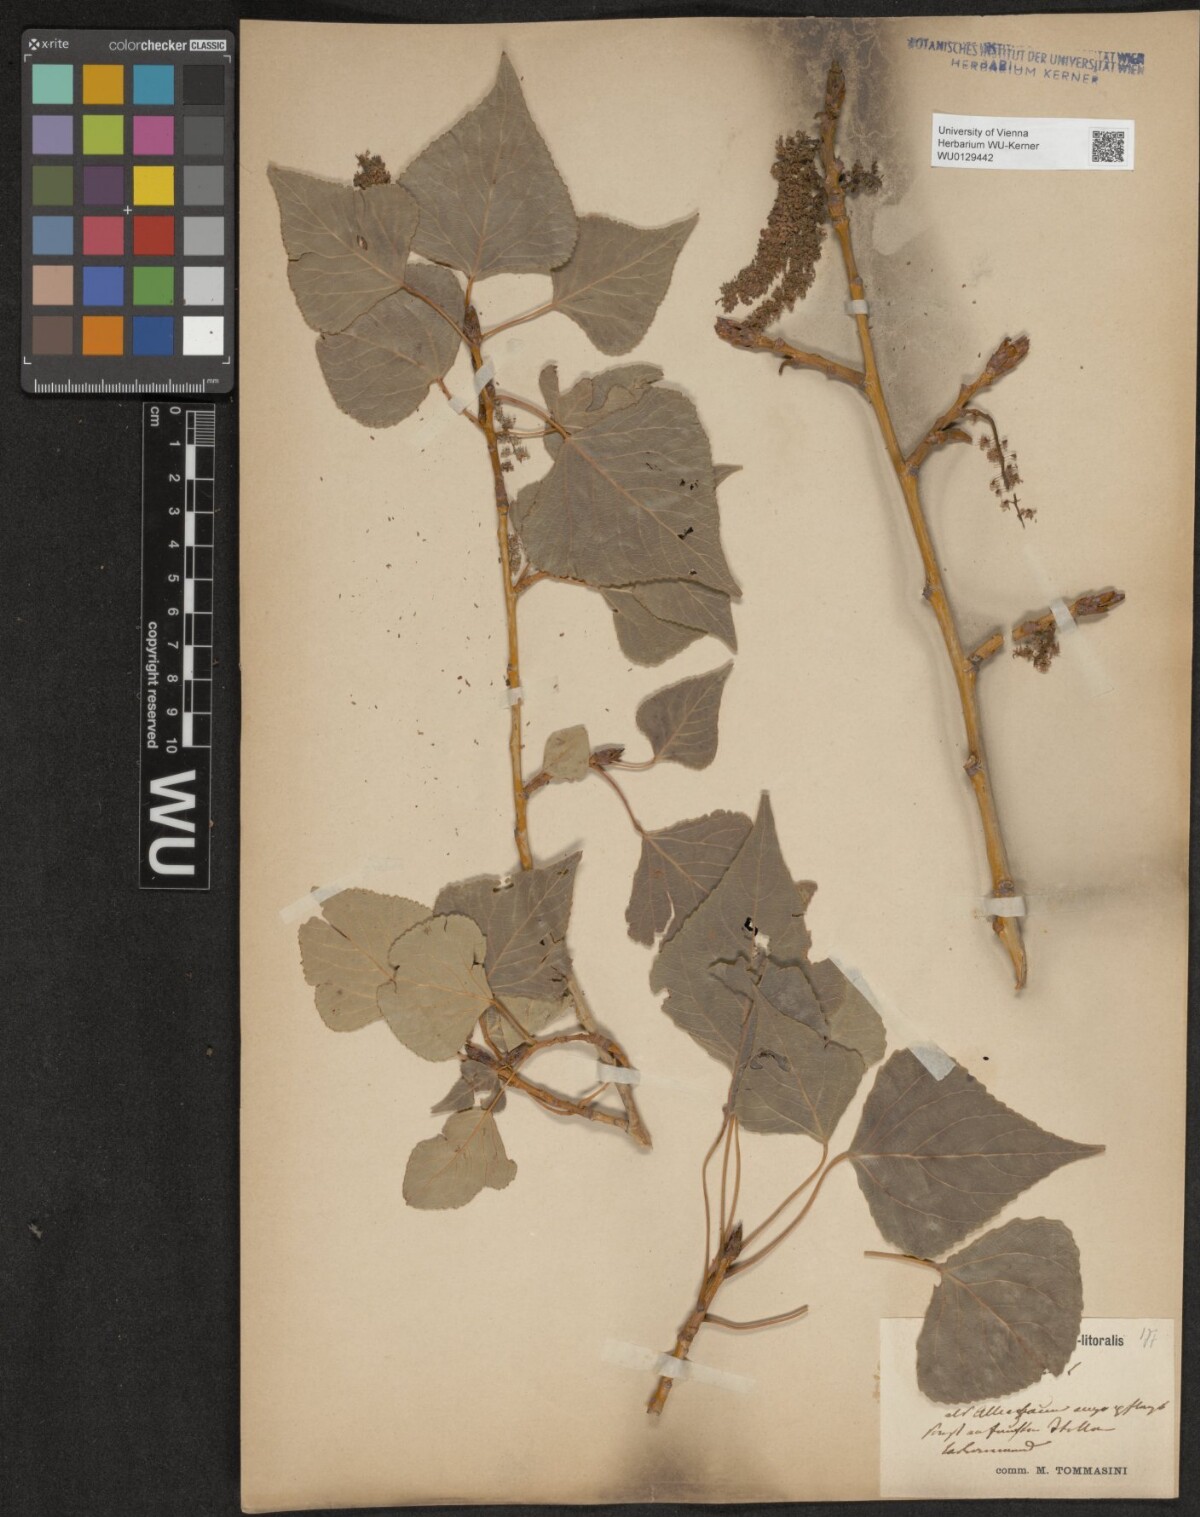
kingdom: Plantae
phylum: Tracheophyta
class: Magnoliopsida
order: Malpighiales
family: Salicaceae
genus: Populus
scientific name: Populus nigra
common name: Black poplar
